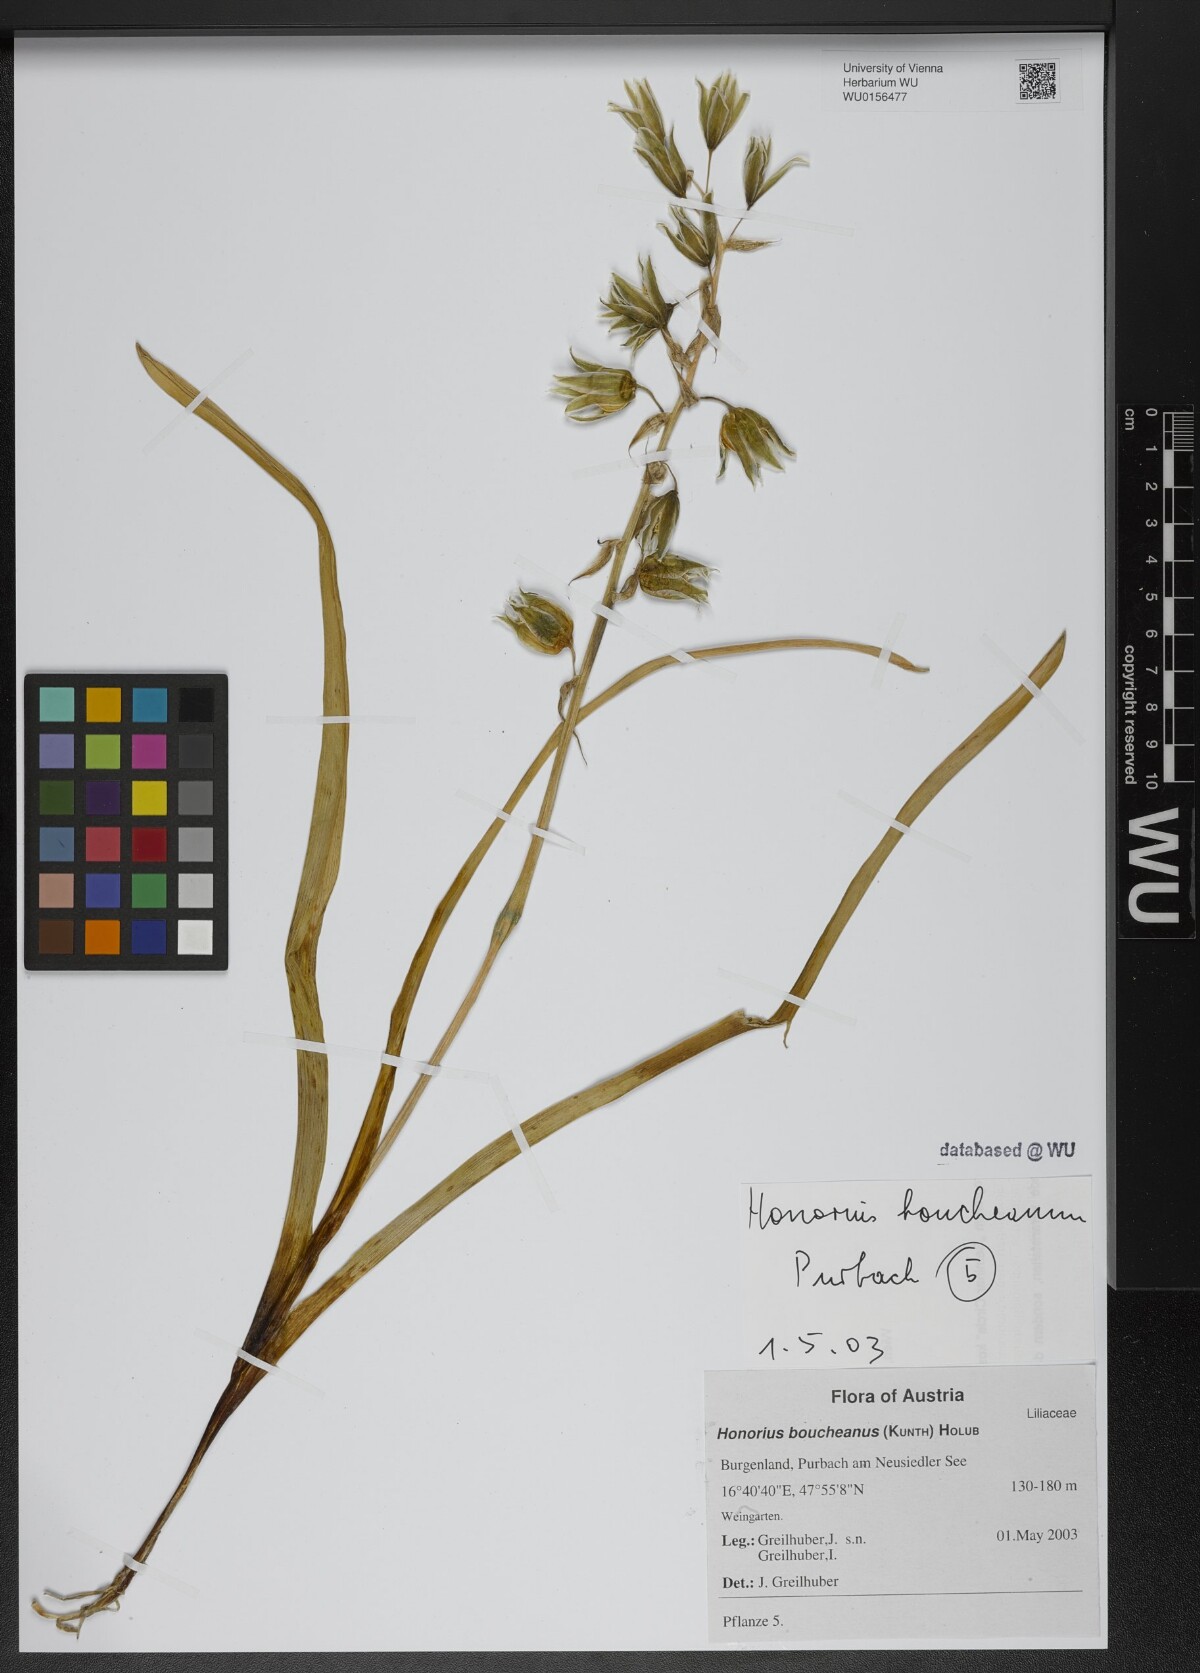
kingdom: Plantae
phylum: Tracheophyta
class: Liliopsida
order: Asparagales
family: Asparagaceae
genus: Ornithogalum
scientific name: Ornithogalum boucheanum
